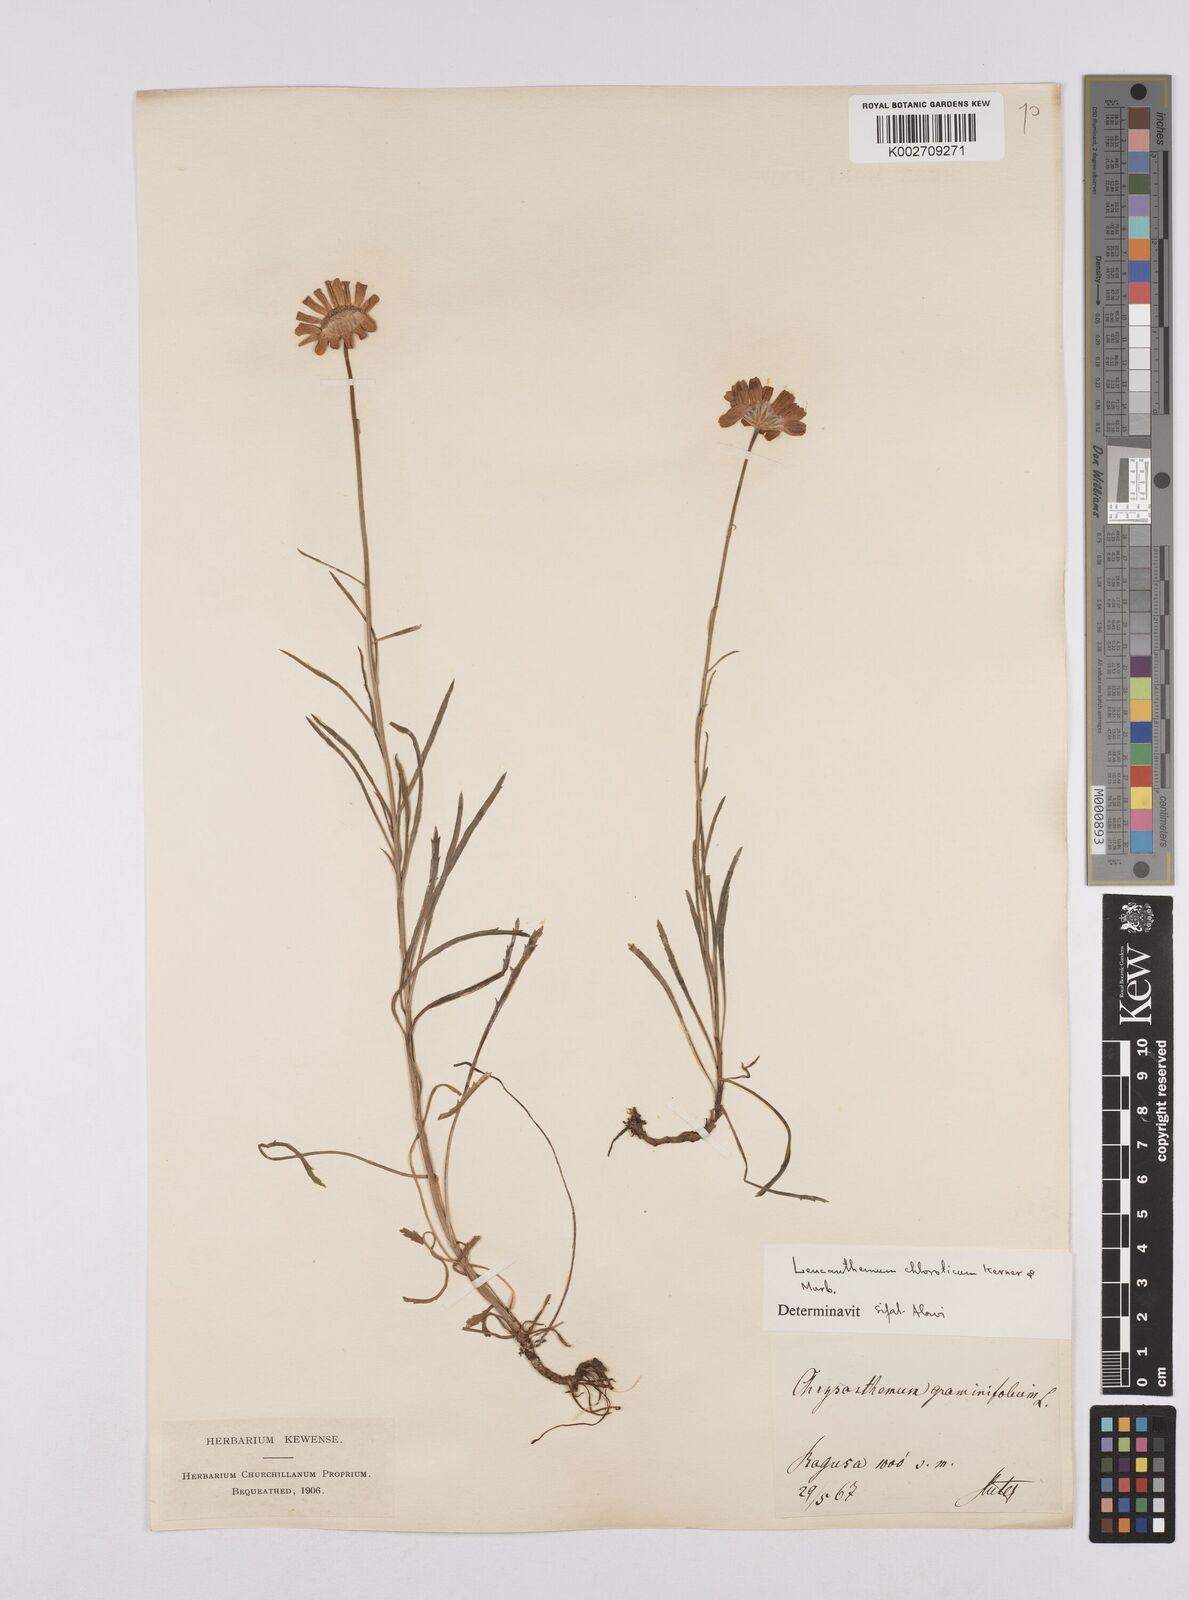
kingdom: Plantae
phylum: Tracheophyta
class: Magnoliopsida
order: Asterales
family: Asteraceae
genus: Leucanthemum
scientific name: Leucanthemum chloroticum
